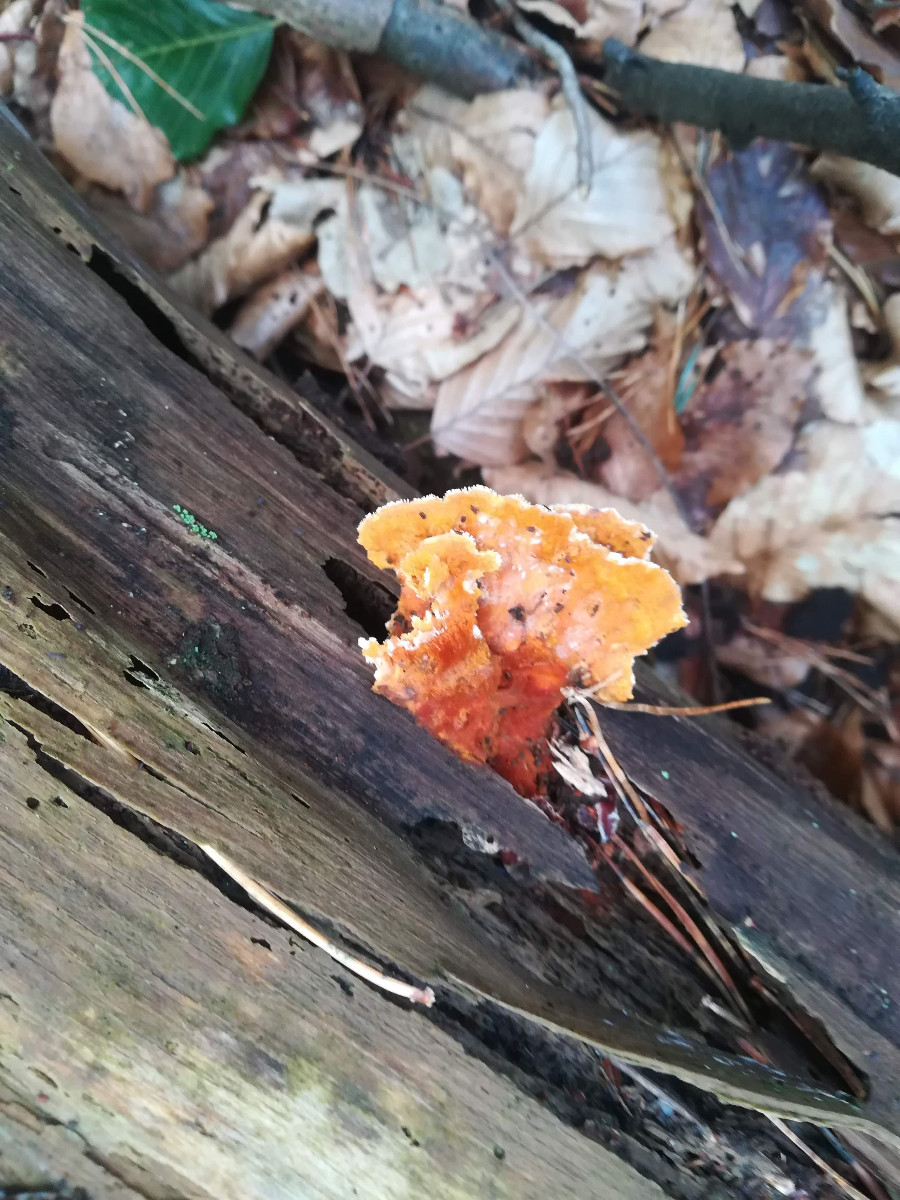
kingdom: Fungi
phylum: Basidiomycota
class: Agaricomycetes
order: Polyporales
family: Pycnoporellaceae
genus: Pycnoporellus
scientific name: Pycnoporellus fulgens
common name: flammeporesvamp
